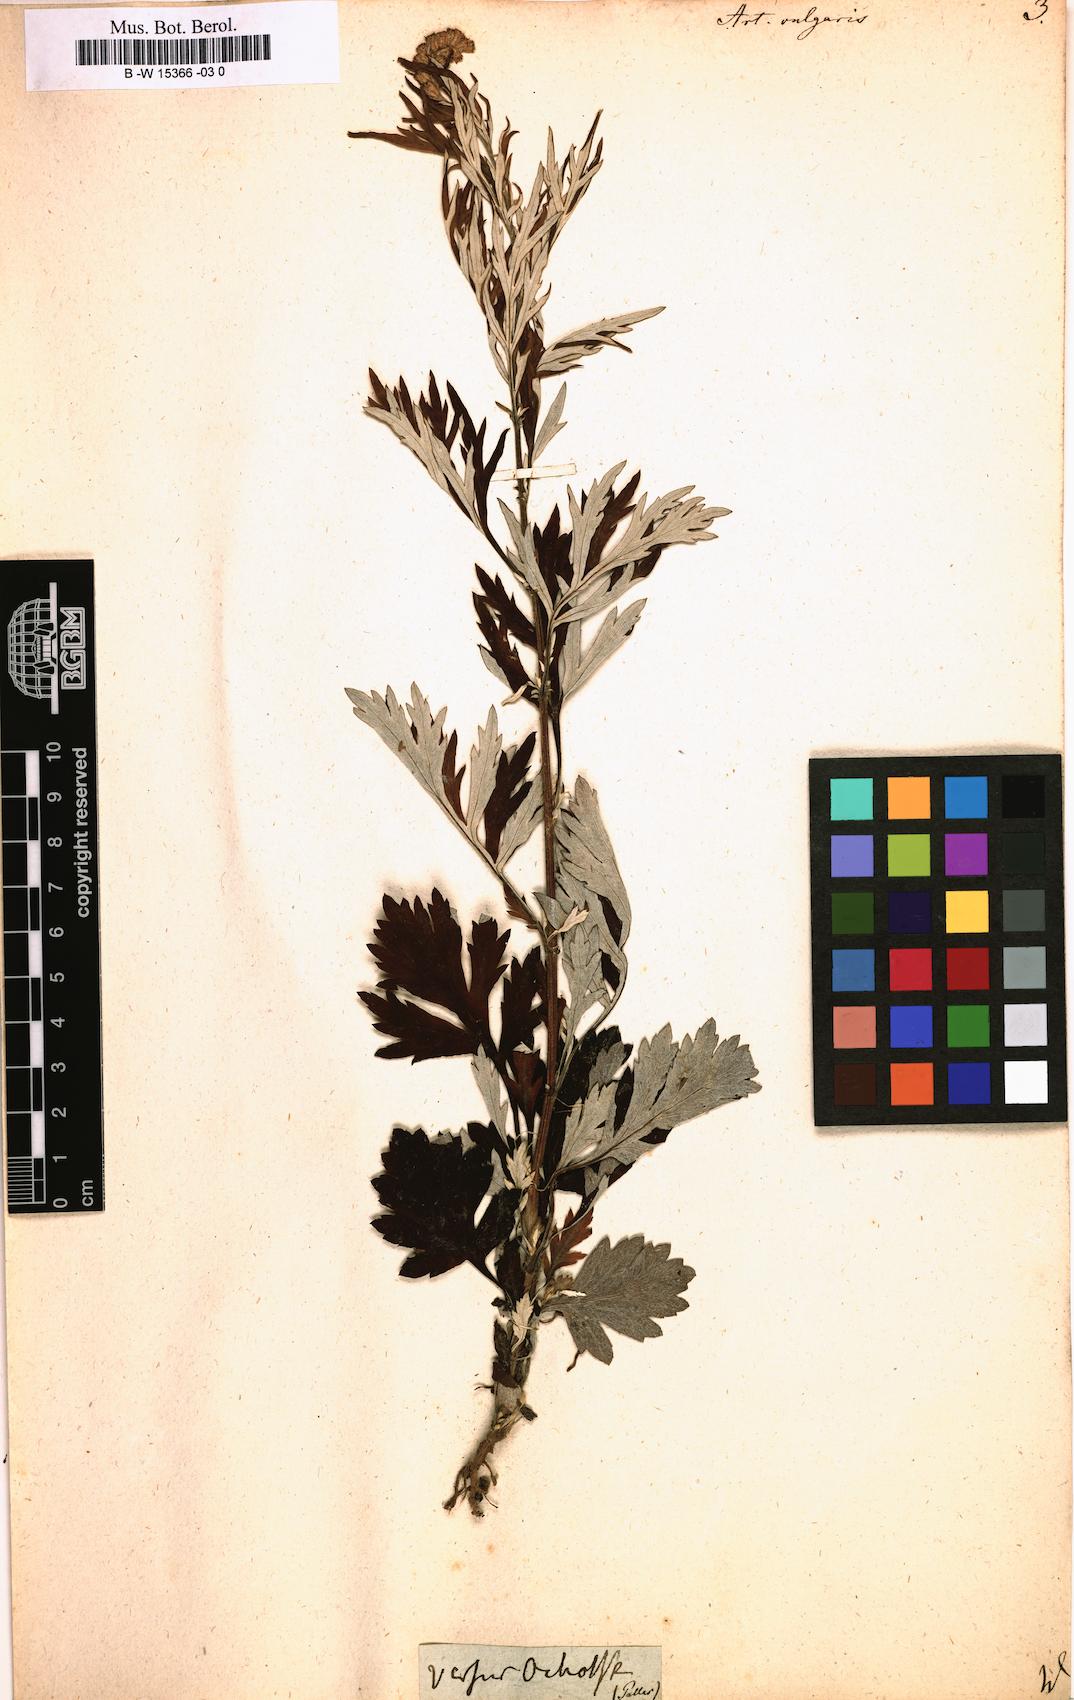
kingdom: Plantae
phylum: Tracheophyta
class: Magnoliopsida
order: Asterales
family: Asteraceae
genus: Artemisia
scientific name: Artemisia vulgaris
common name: Mugwort
